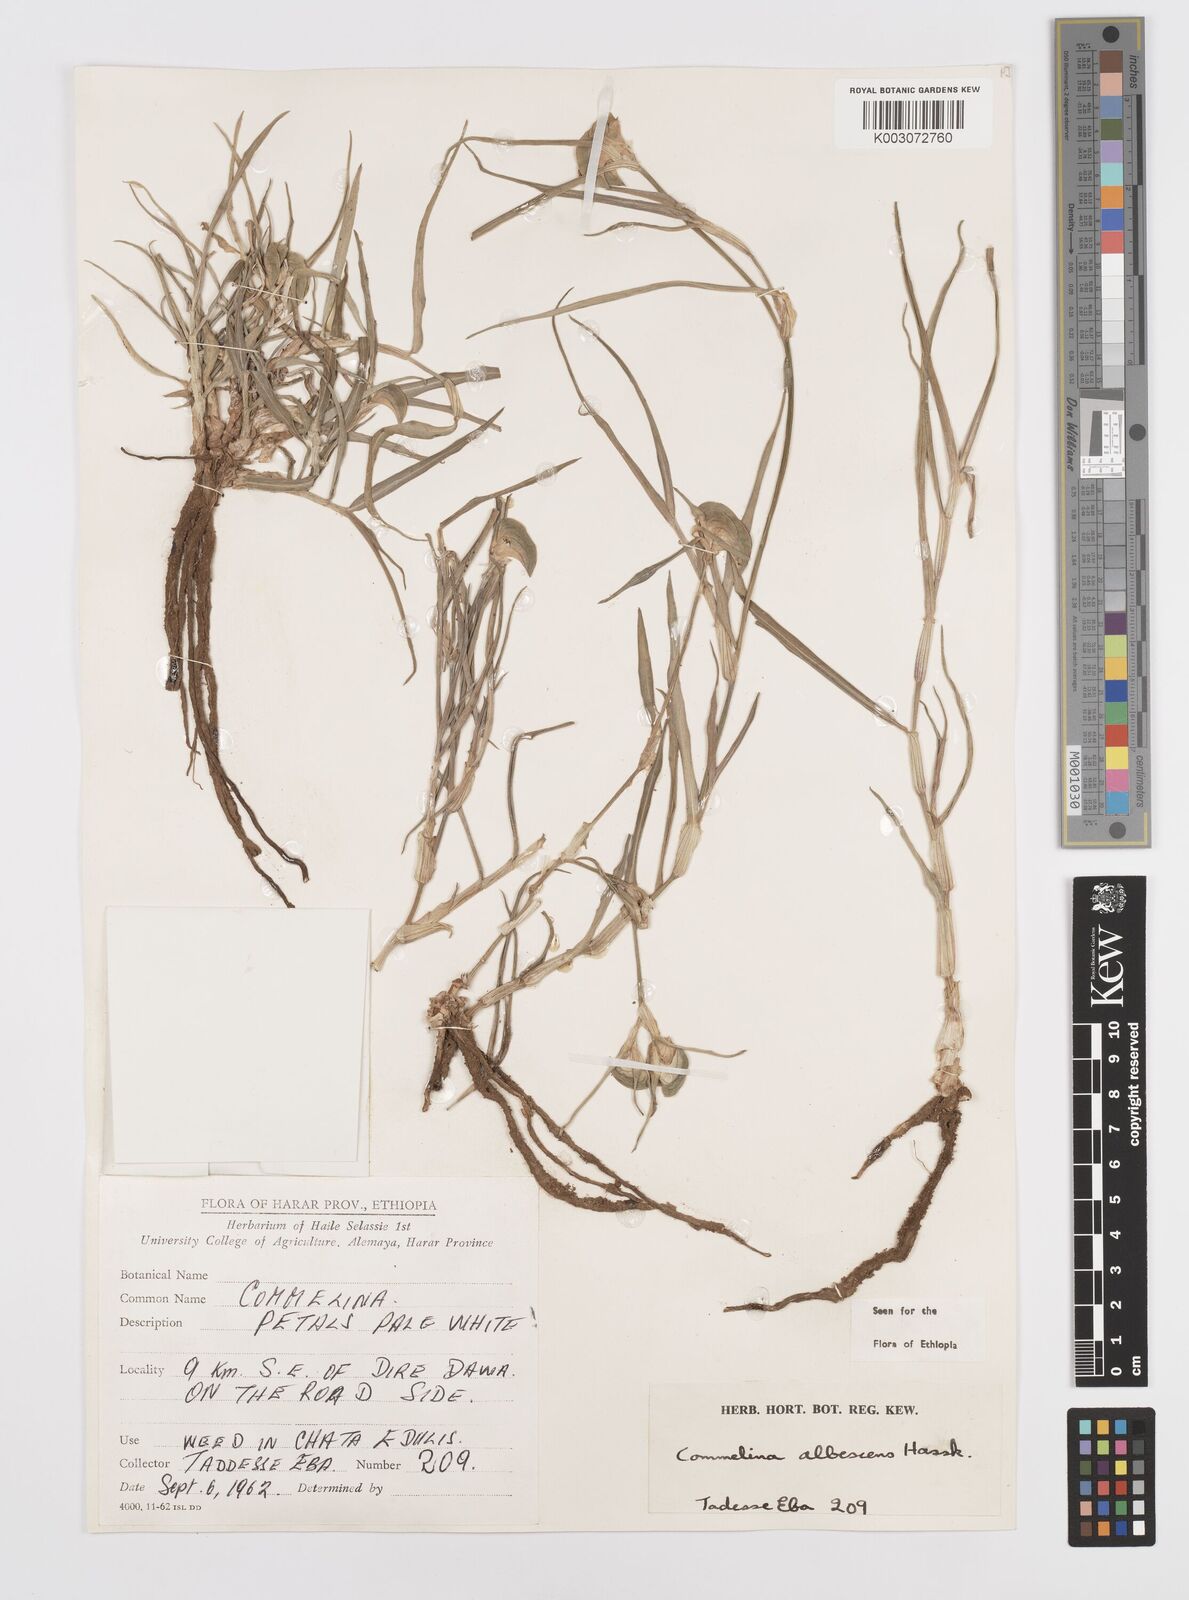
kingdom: Plantae
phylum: Tracheophyta
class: Liliopsida
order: Commelinales
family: Commelinaceae
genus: Commelina
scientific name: Commelina albescens
